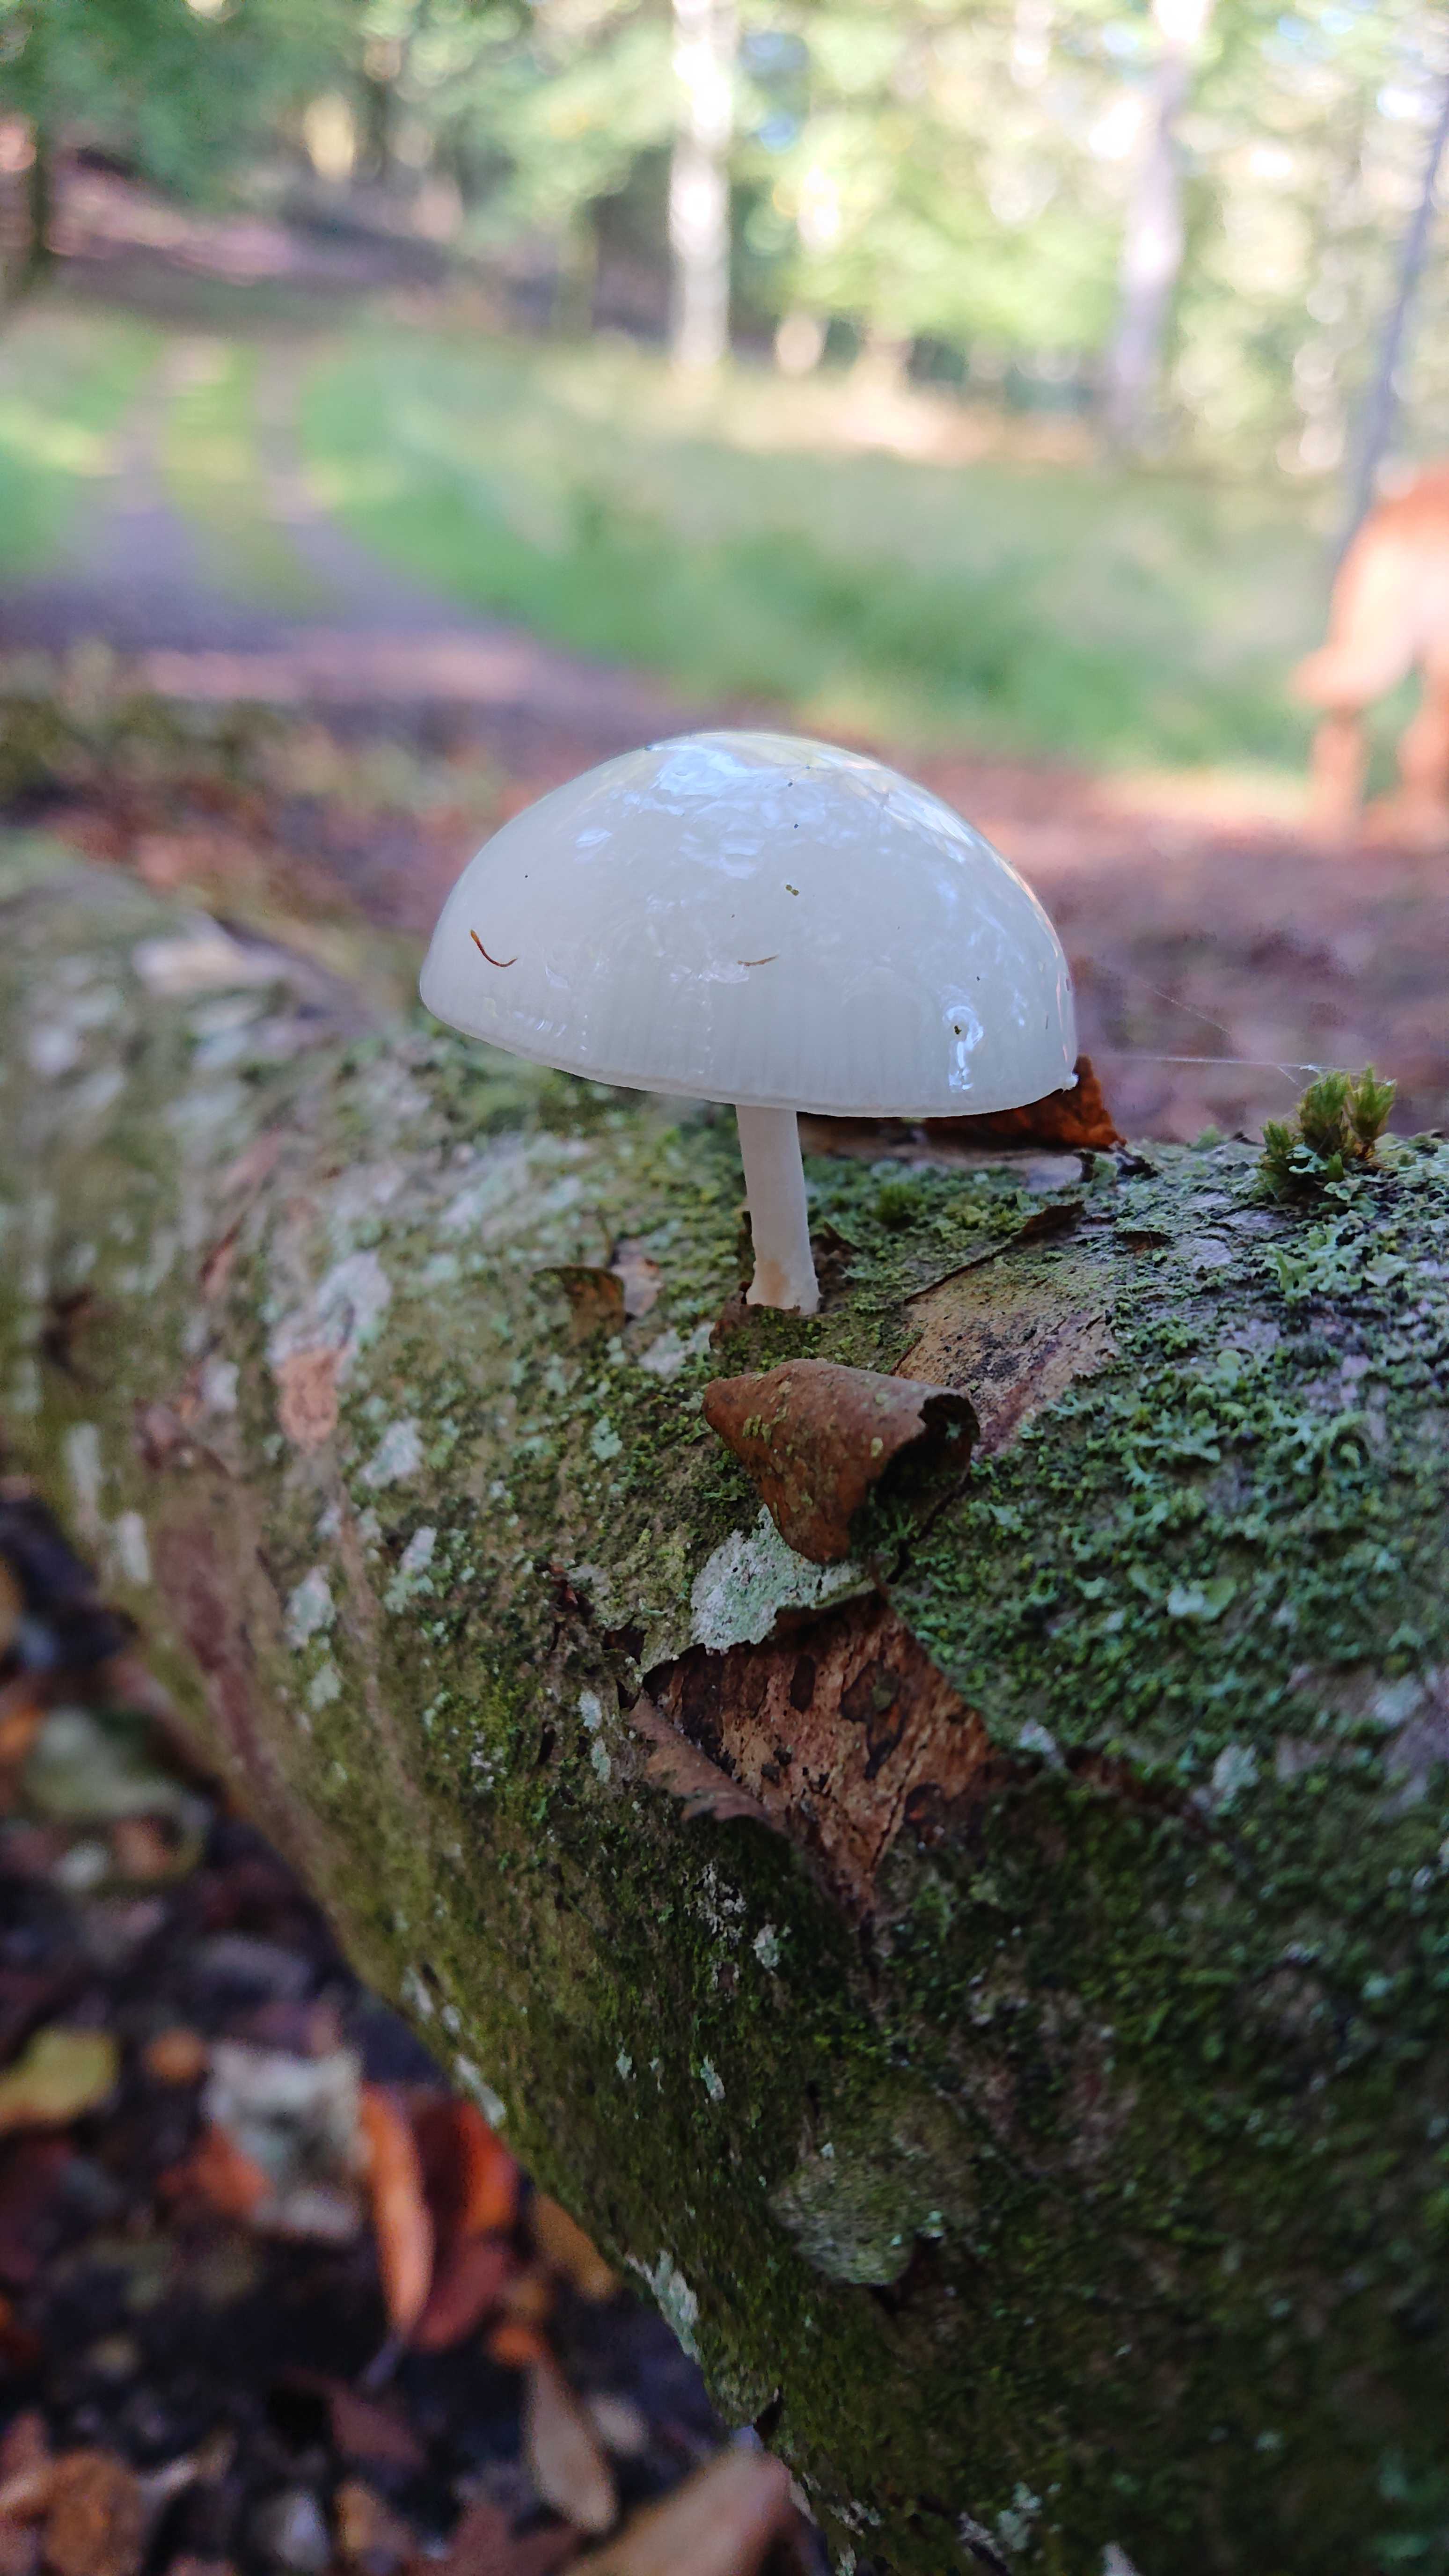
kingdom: Fungi
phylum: Basidiomycota
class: Agaricomycetes
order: Agaricales
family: Physalacriaceae
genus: Mucidula
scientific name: Mucidula mucida
